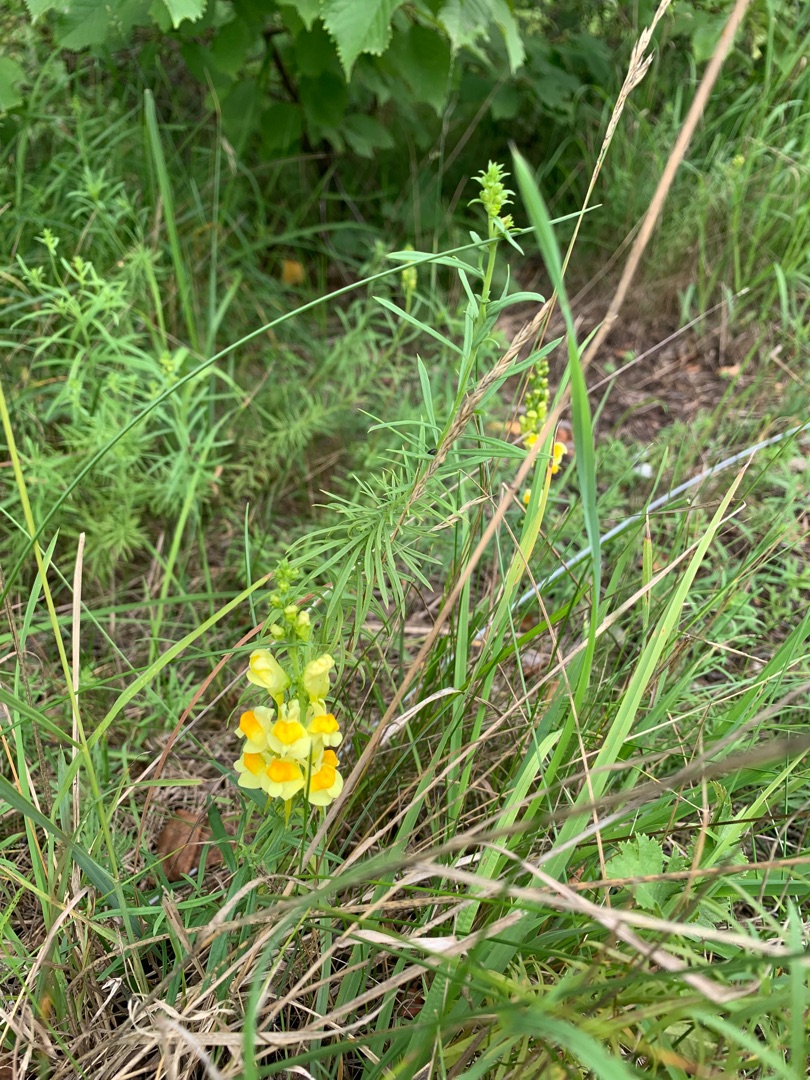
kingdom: Plantae
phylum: Tracheophyta
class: Magnoliopsida
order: Lamiales
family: Plantaginaceae
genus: Linaria
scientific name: Linaria vulgaris
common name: Almindelig torskemund
